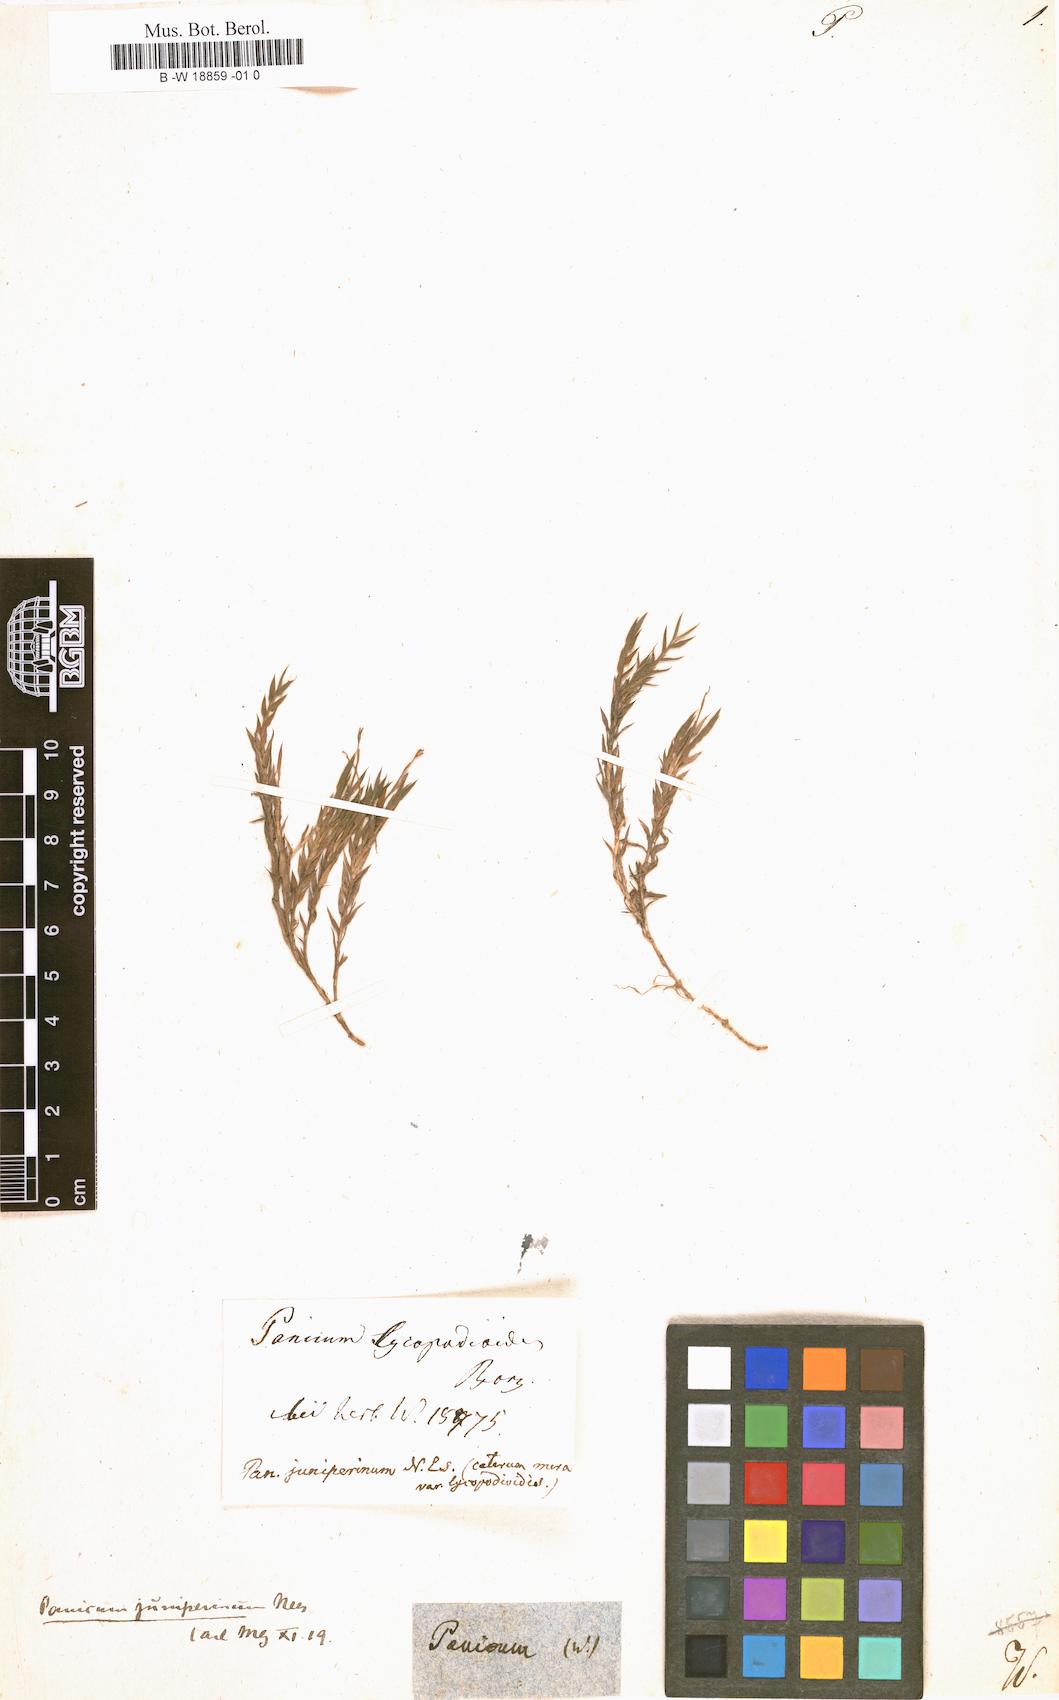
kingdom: Plantae
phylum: Tracheophyta
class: Liliopsida
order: Poales
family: Poaceae
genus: Panicum
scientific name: Panicum
